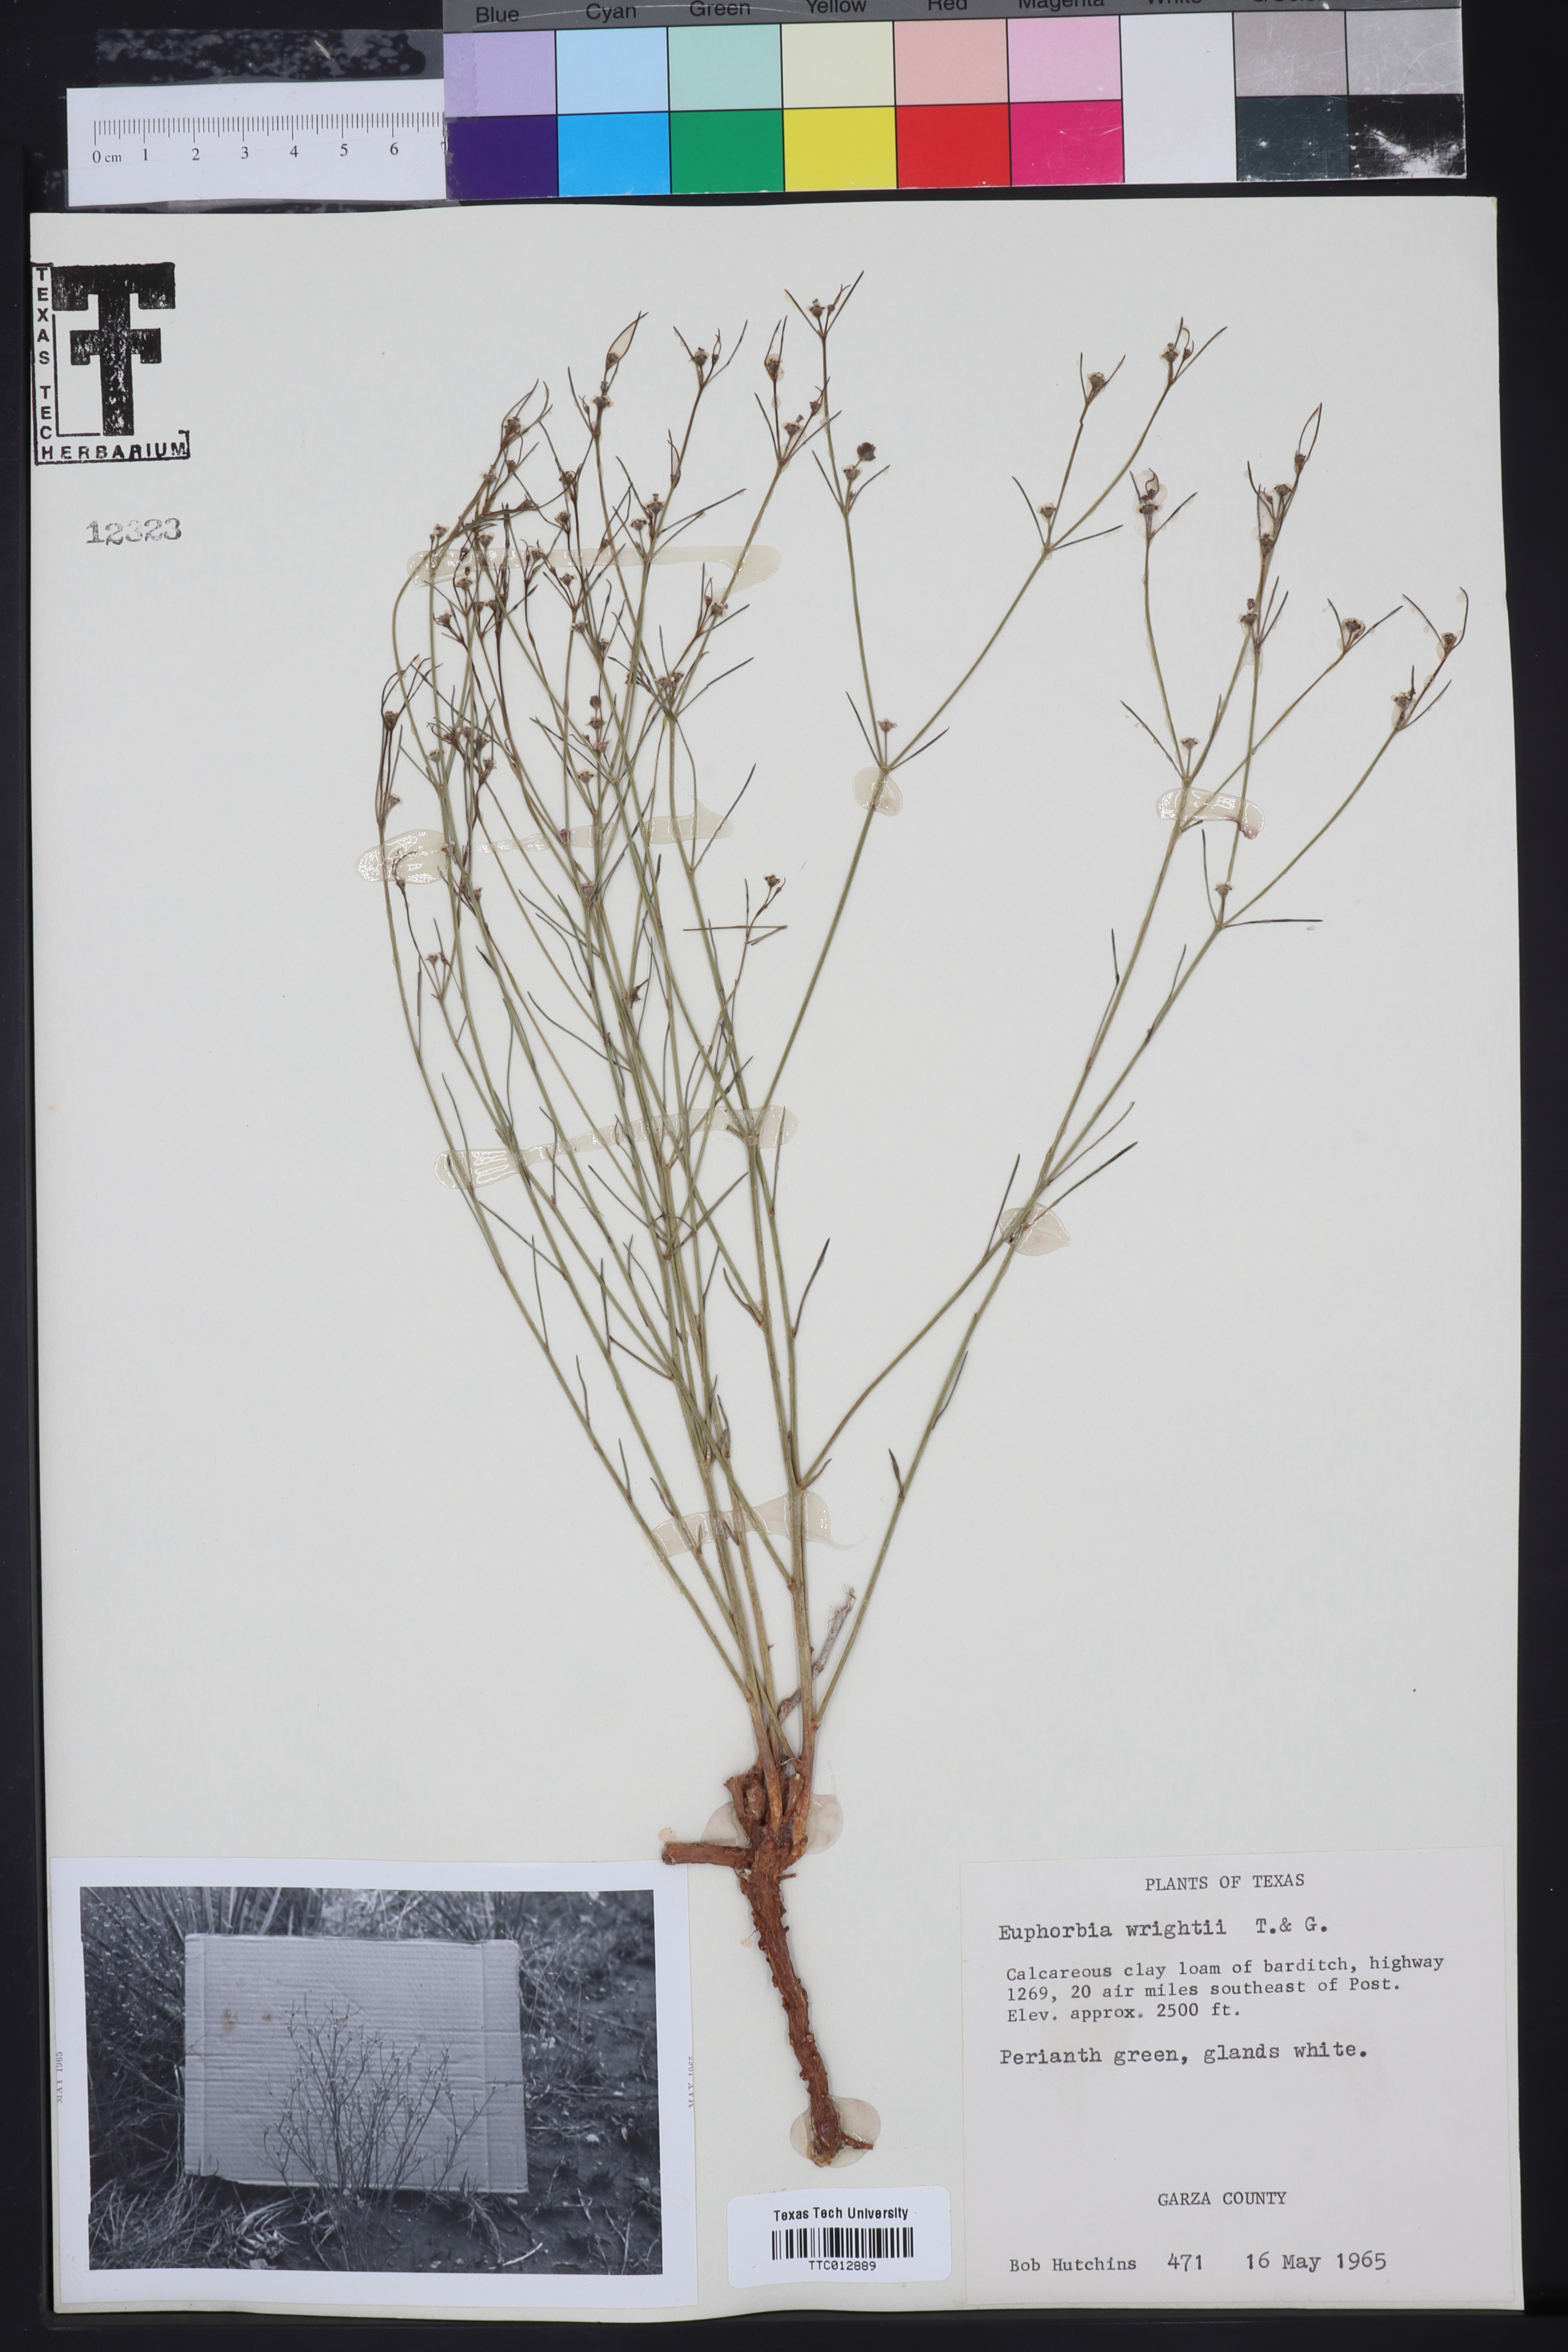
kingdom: Plantae
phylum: Tracheophyta
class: Magnoliopsida
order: Malpighiales
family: Euphorbiaceae
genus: Euphorbia
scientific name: Euphorbia wrightii
